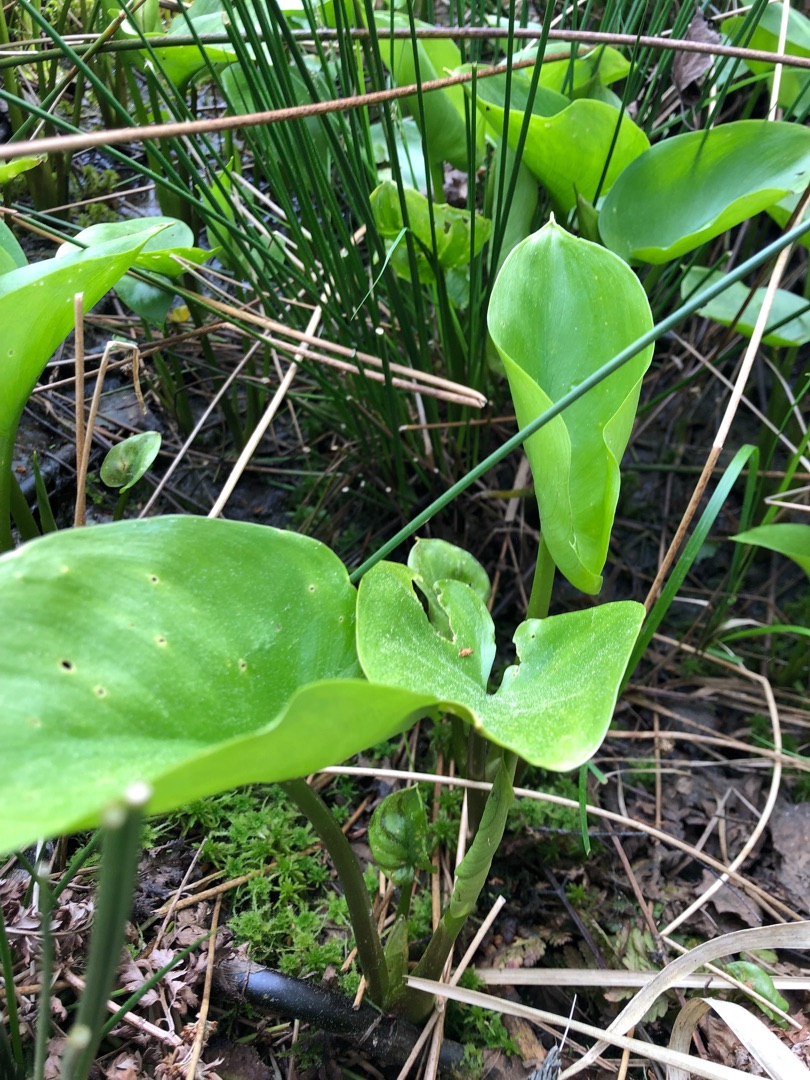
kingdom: Plantae
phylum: Tracheophyta
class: Liliopsida
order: Alismatales
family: Araceae
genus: Calla
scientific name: Calla palustris
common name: Kærmysse
